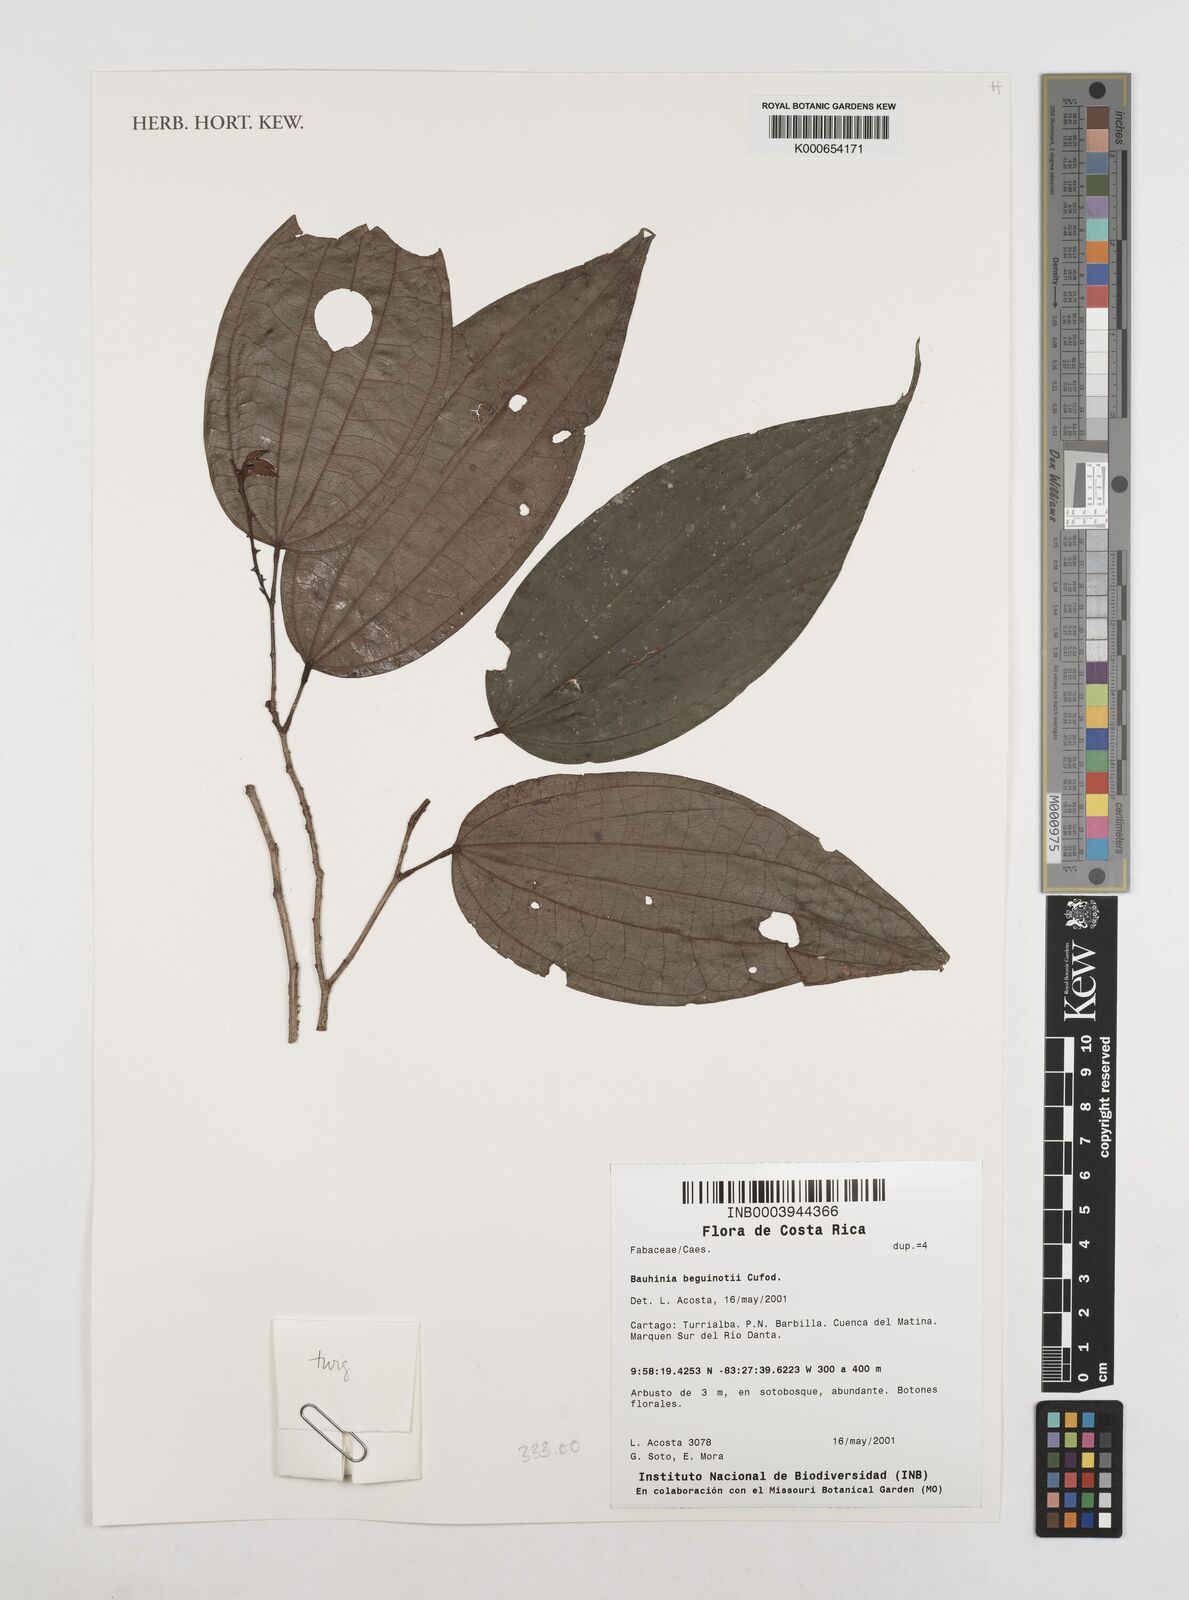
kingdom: Plantae
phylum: Tracheophyta
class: Magnoliopsida
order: Fabales
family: Fabaceae
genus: Bauhinia
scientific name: Bauhinia beguinotii
